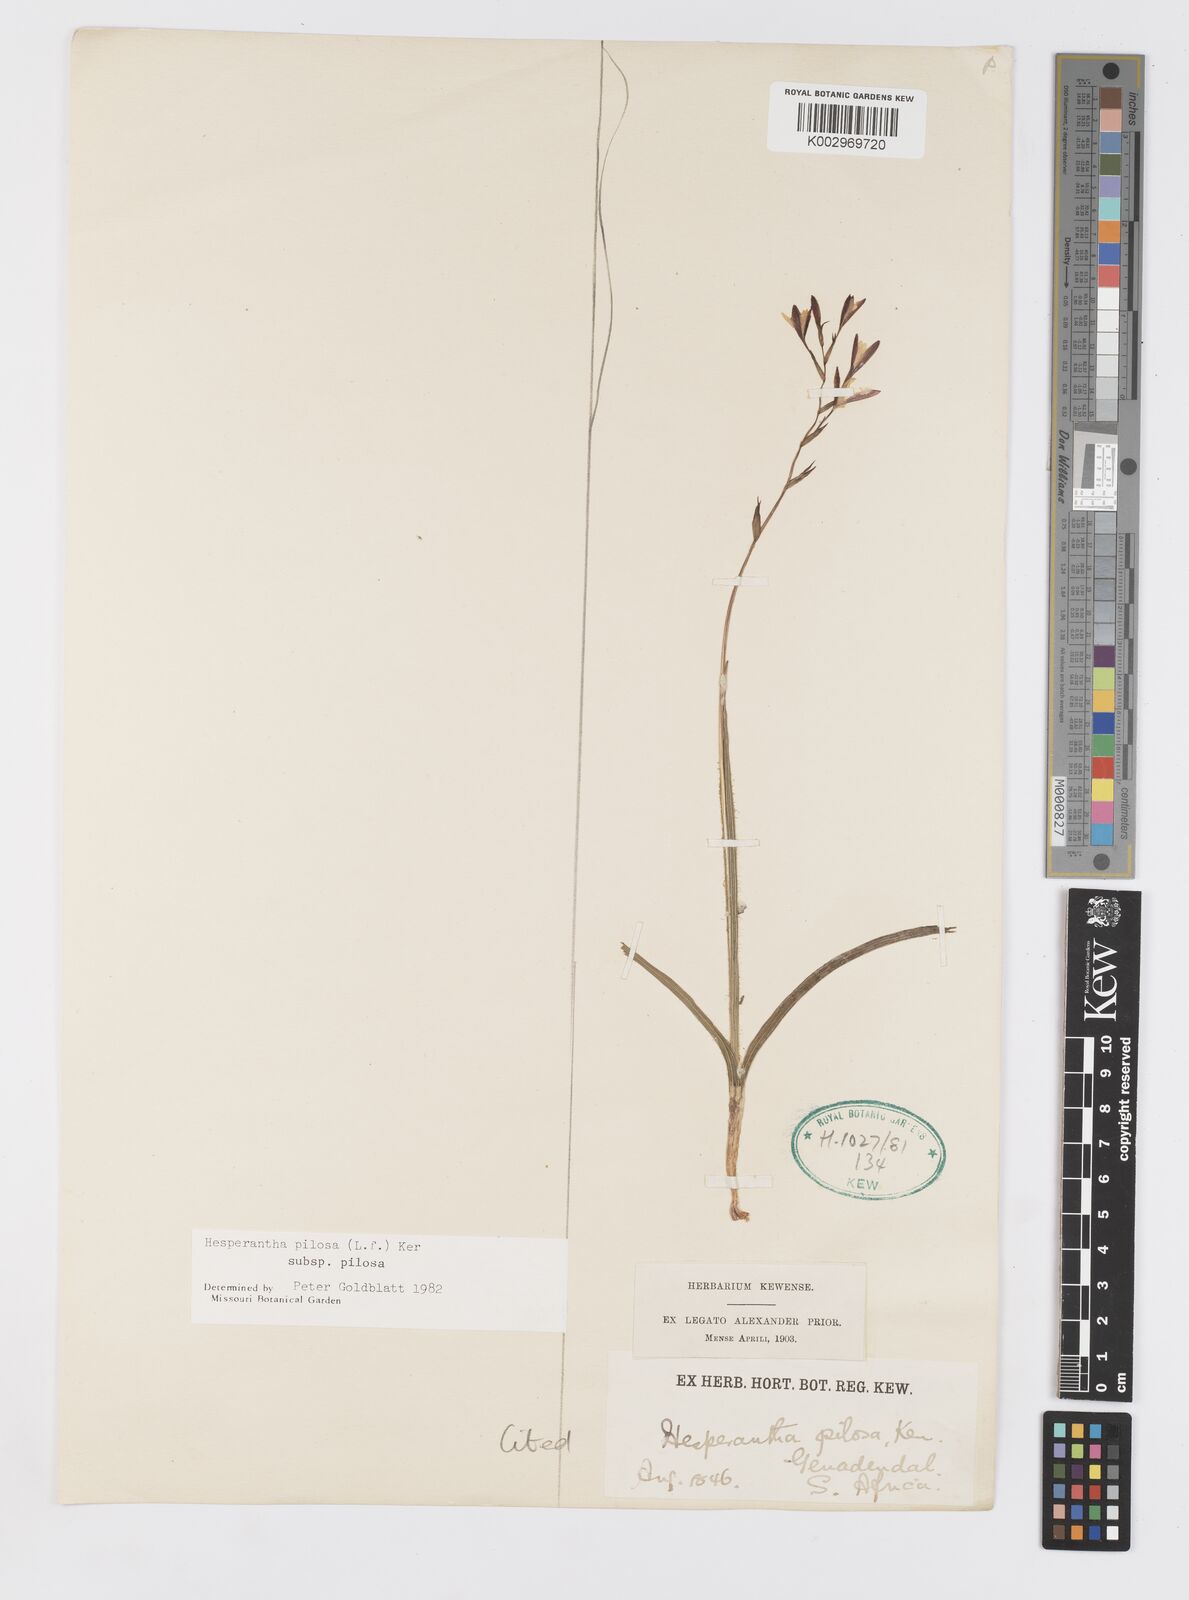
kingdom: Plantae
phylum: Tracheophyta
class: Liliopsida
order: Asparagales
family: Iridaceae
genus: Hesperantha
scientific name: Hesperantha pilosa
